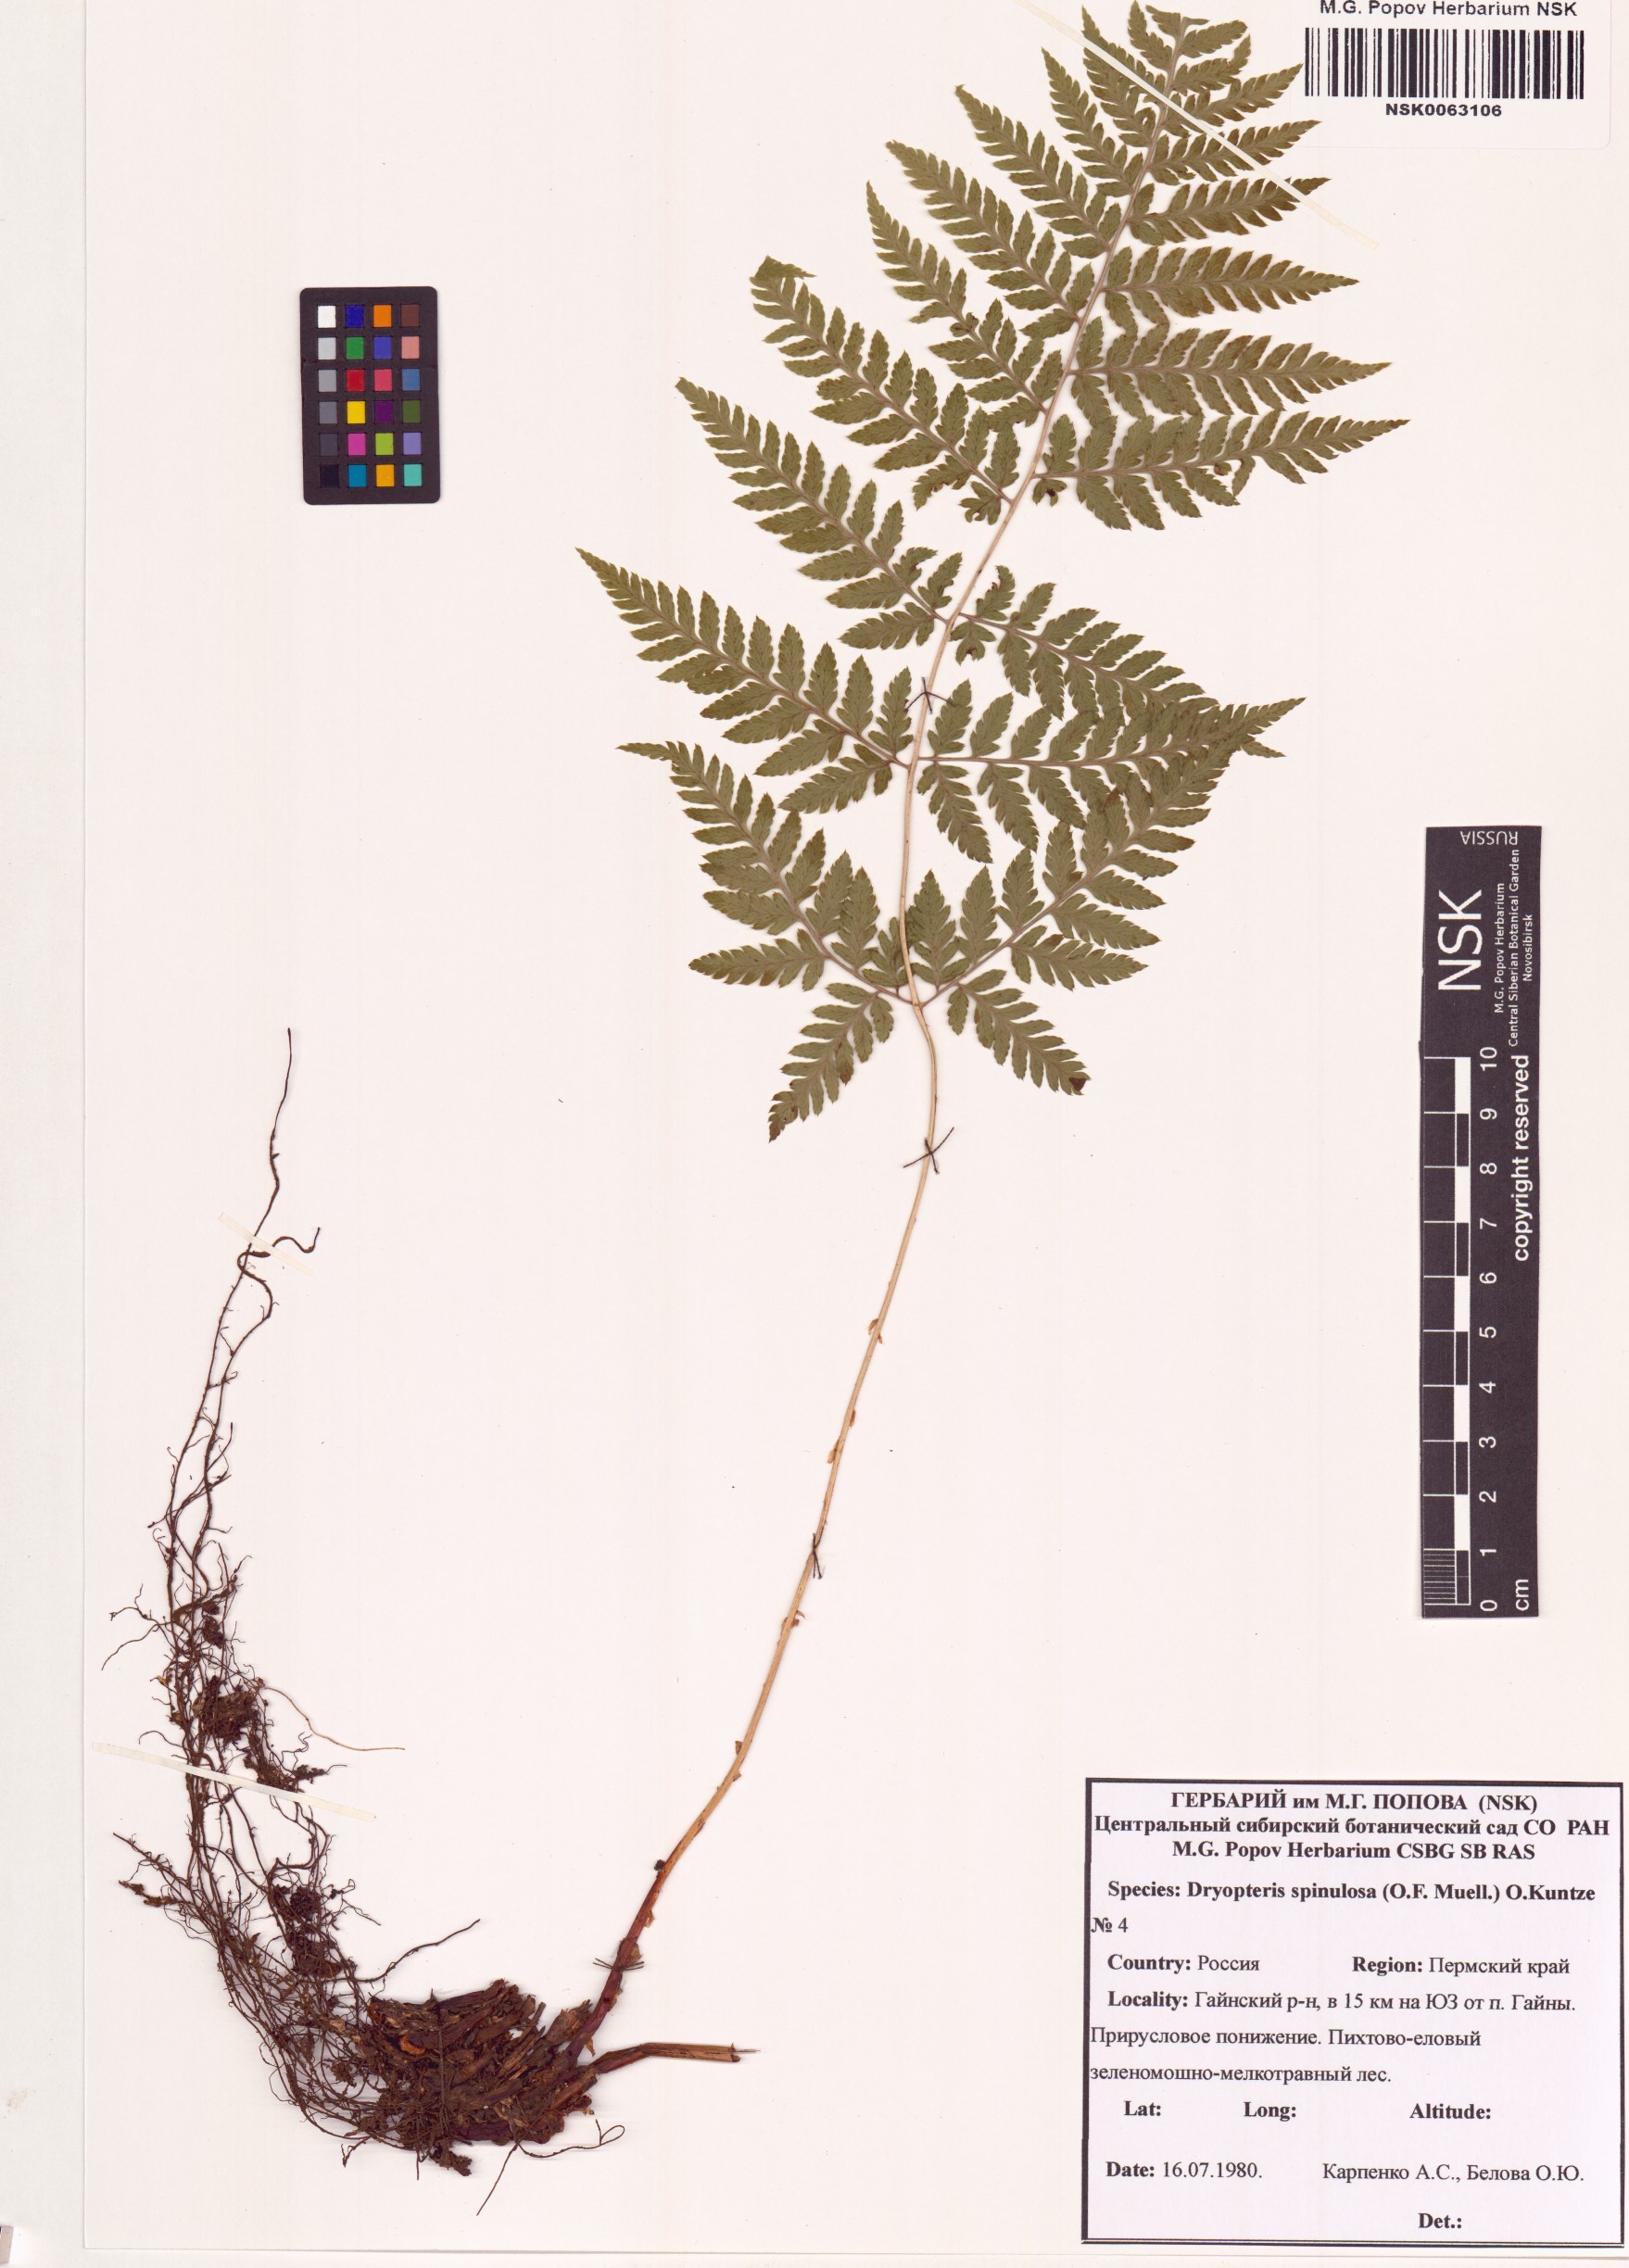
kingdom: Plantae
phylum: Tracheophyta
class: Polypodiopsida
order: Polypodiales
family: Dryopteridaceae
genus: Dryopteris
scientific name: Dryopteris carthusiana
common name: Narrow buckler-fern
